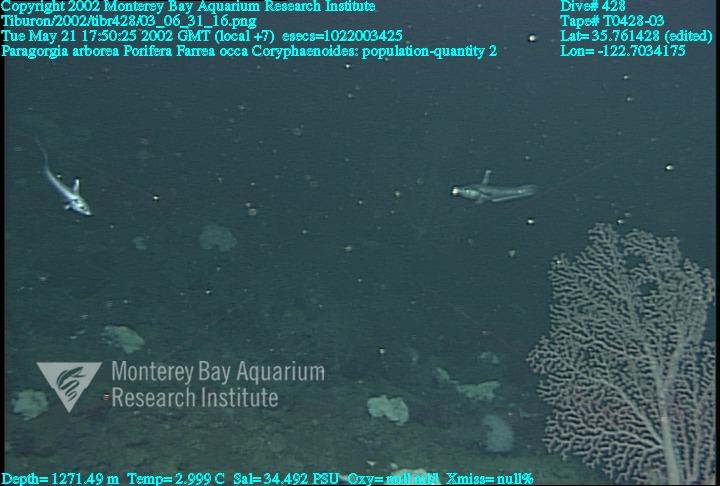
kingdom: Animalia
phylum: Porifera
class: Hexactinellida
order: Sceptrulophora
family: Farreidae
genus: Farrea
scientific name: Farrea occa
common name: Reversed glass sponge
